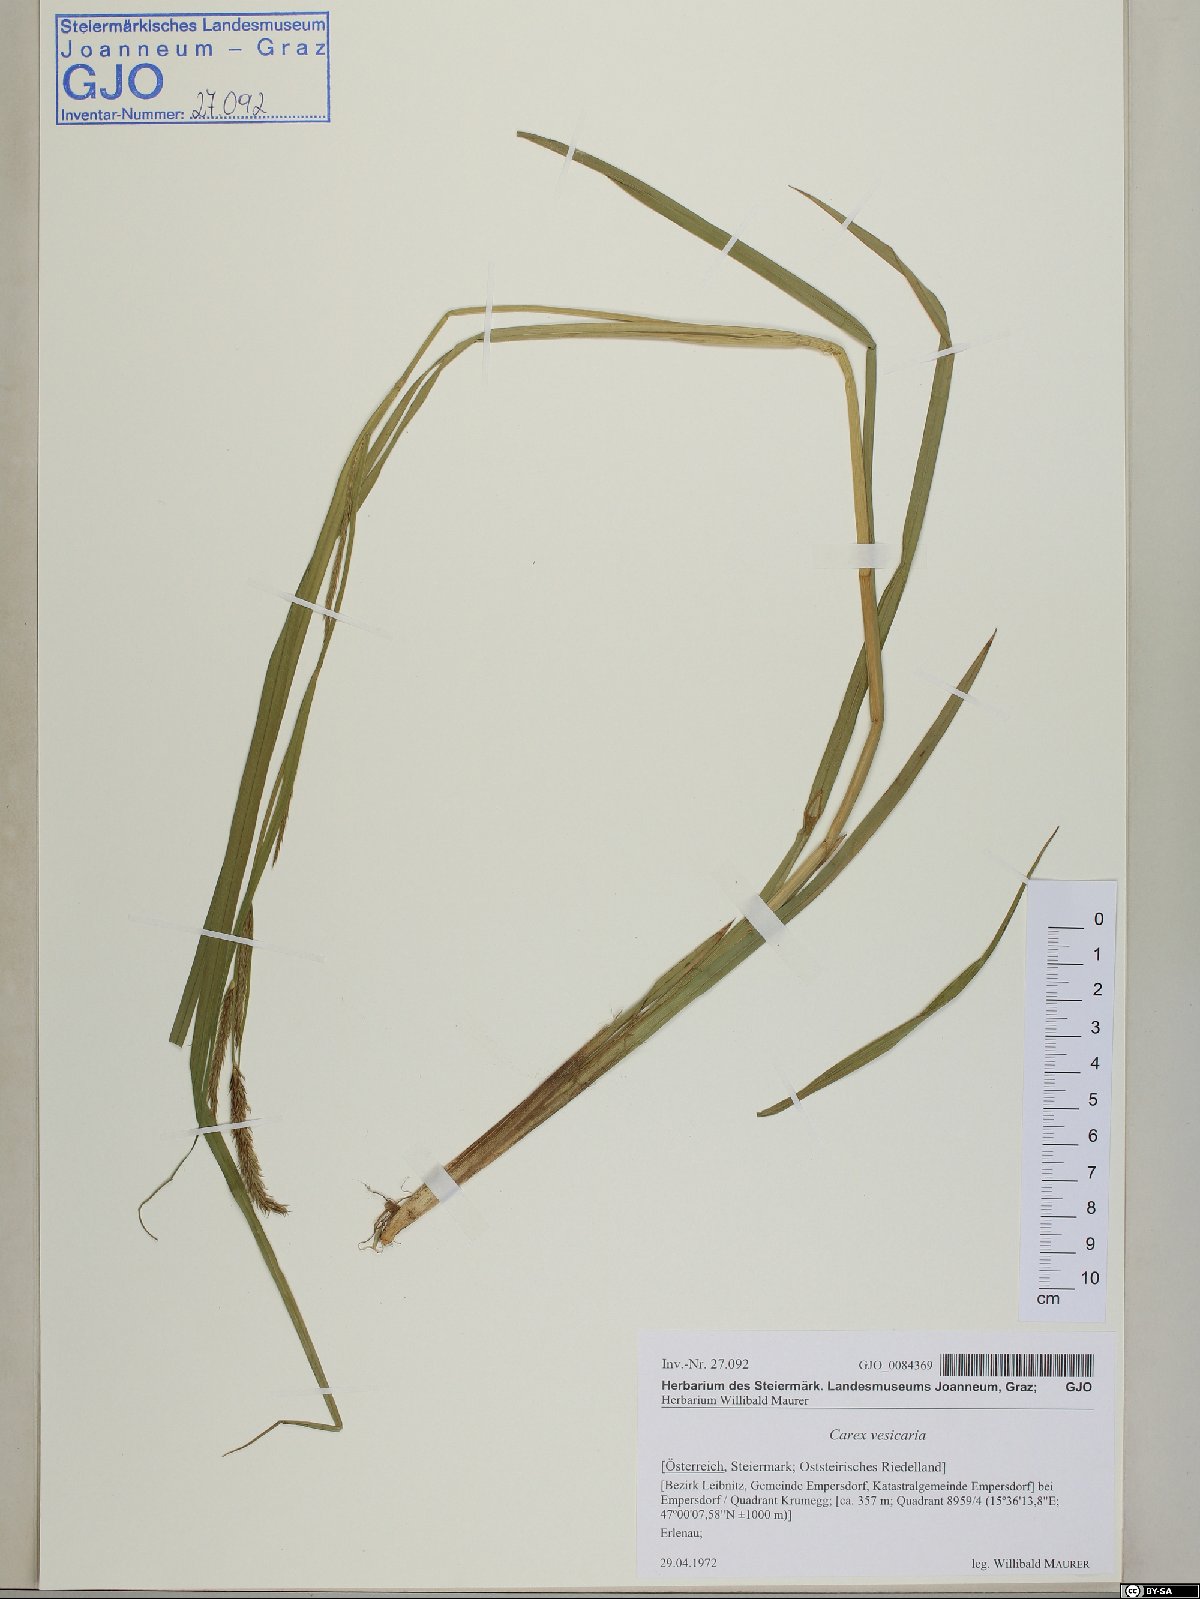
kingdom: Plantae
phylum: Tracheophyta
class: Liliopsida
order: Poales
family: Cyperaceae
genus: Carex
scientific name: Carex vesicaria
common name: Bladder-sedge
